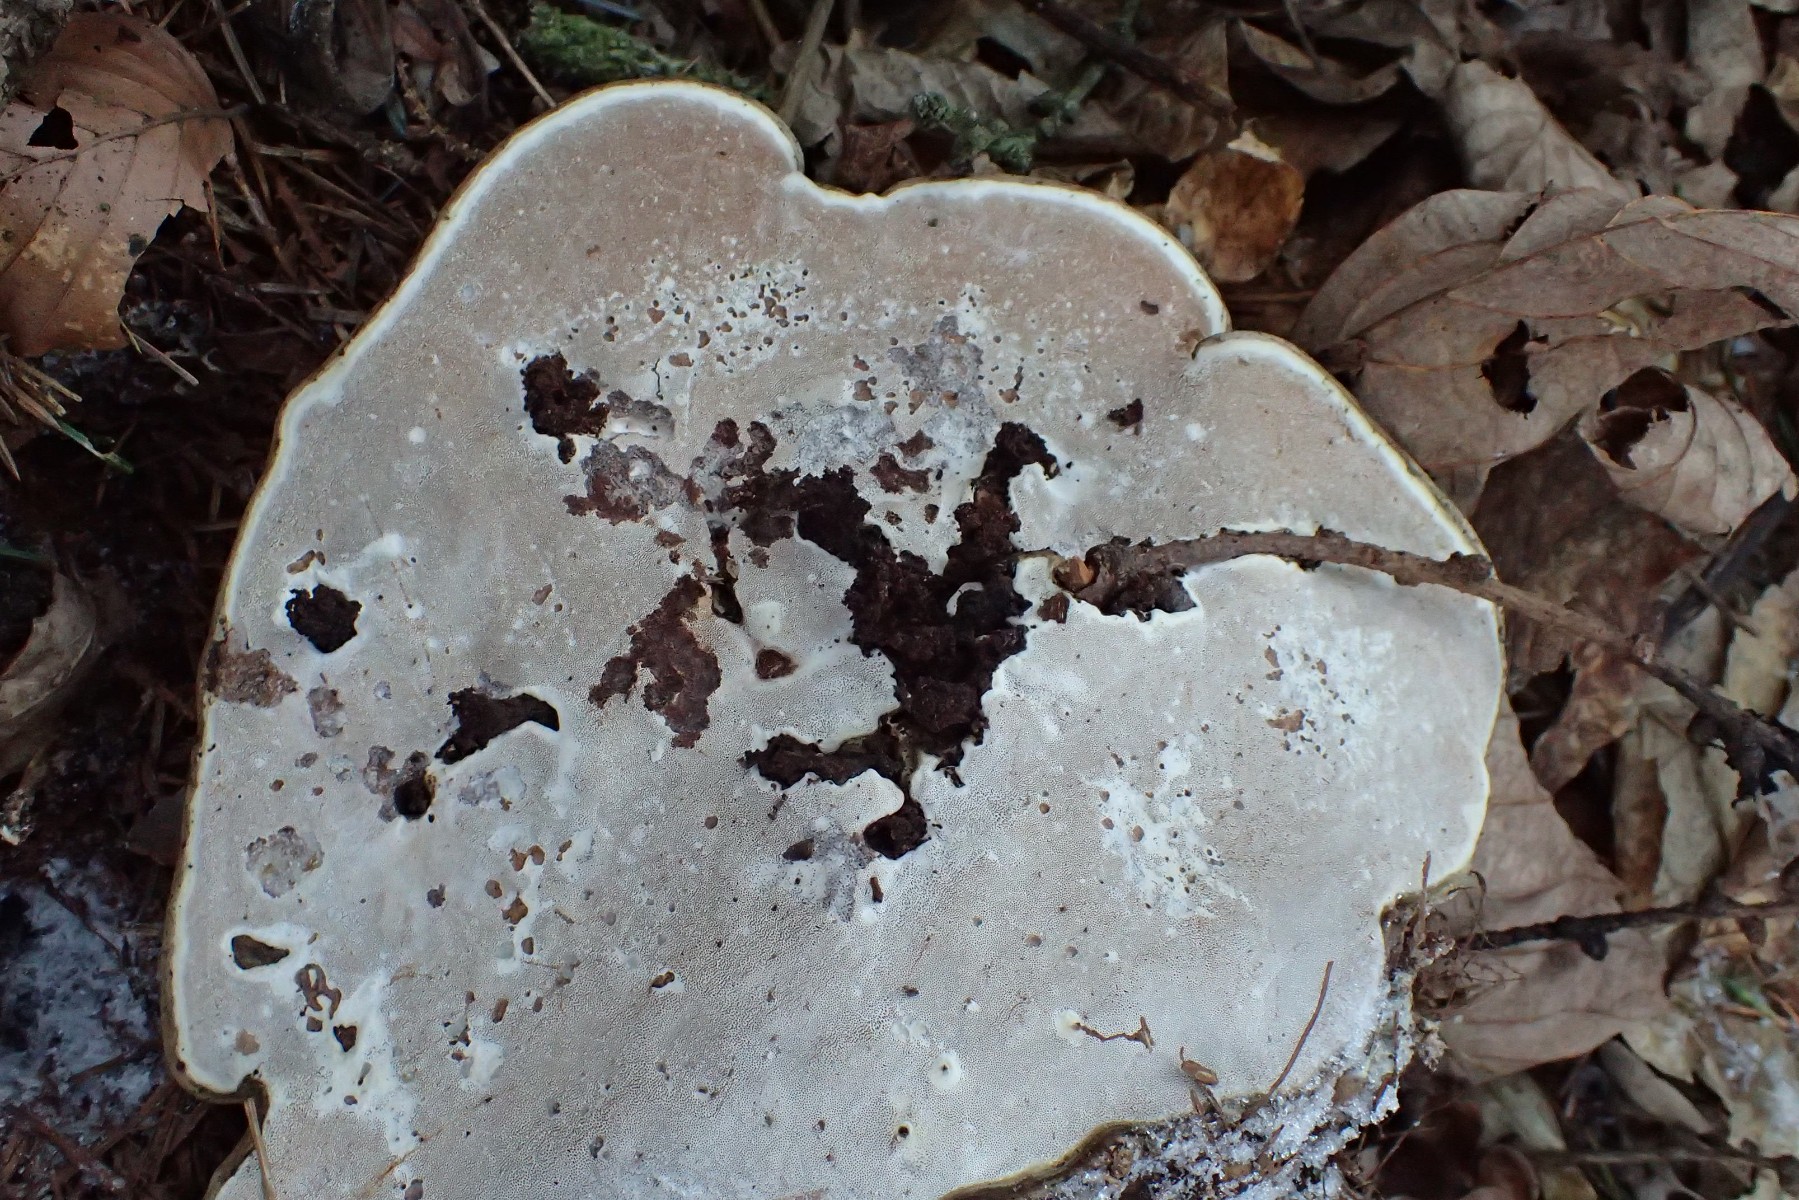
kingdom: Fungi
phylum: Basidiomycota
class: Agaricomycetes
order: Polyporales
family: Polyporaceae
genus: Ganoderma
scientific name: Ganoderma applanatum
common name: flad lakporesvamp
